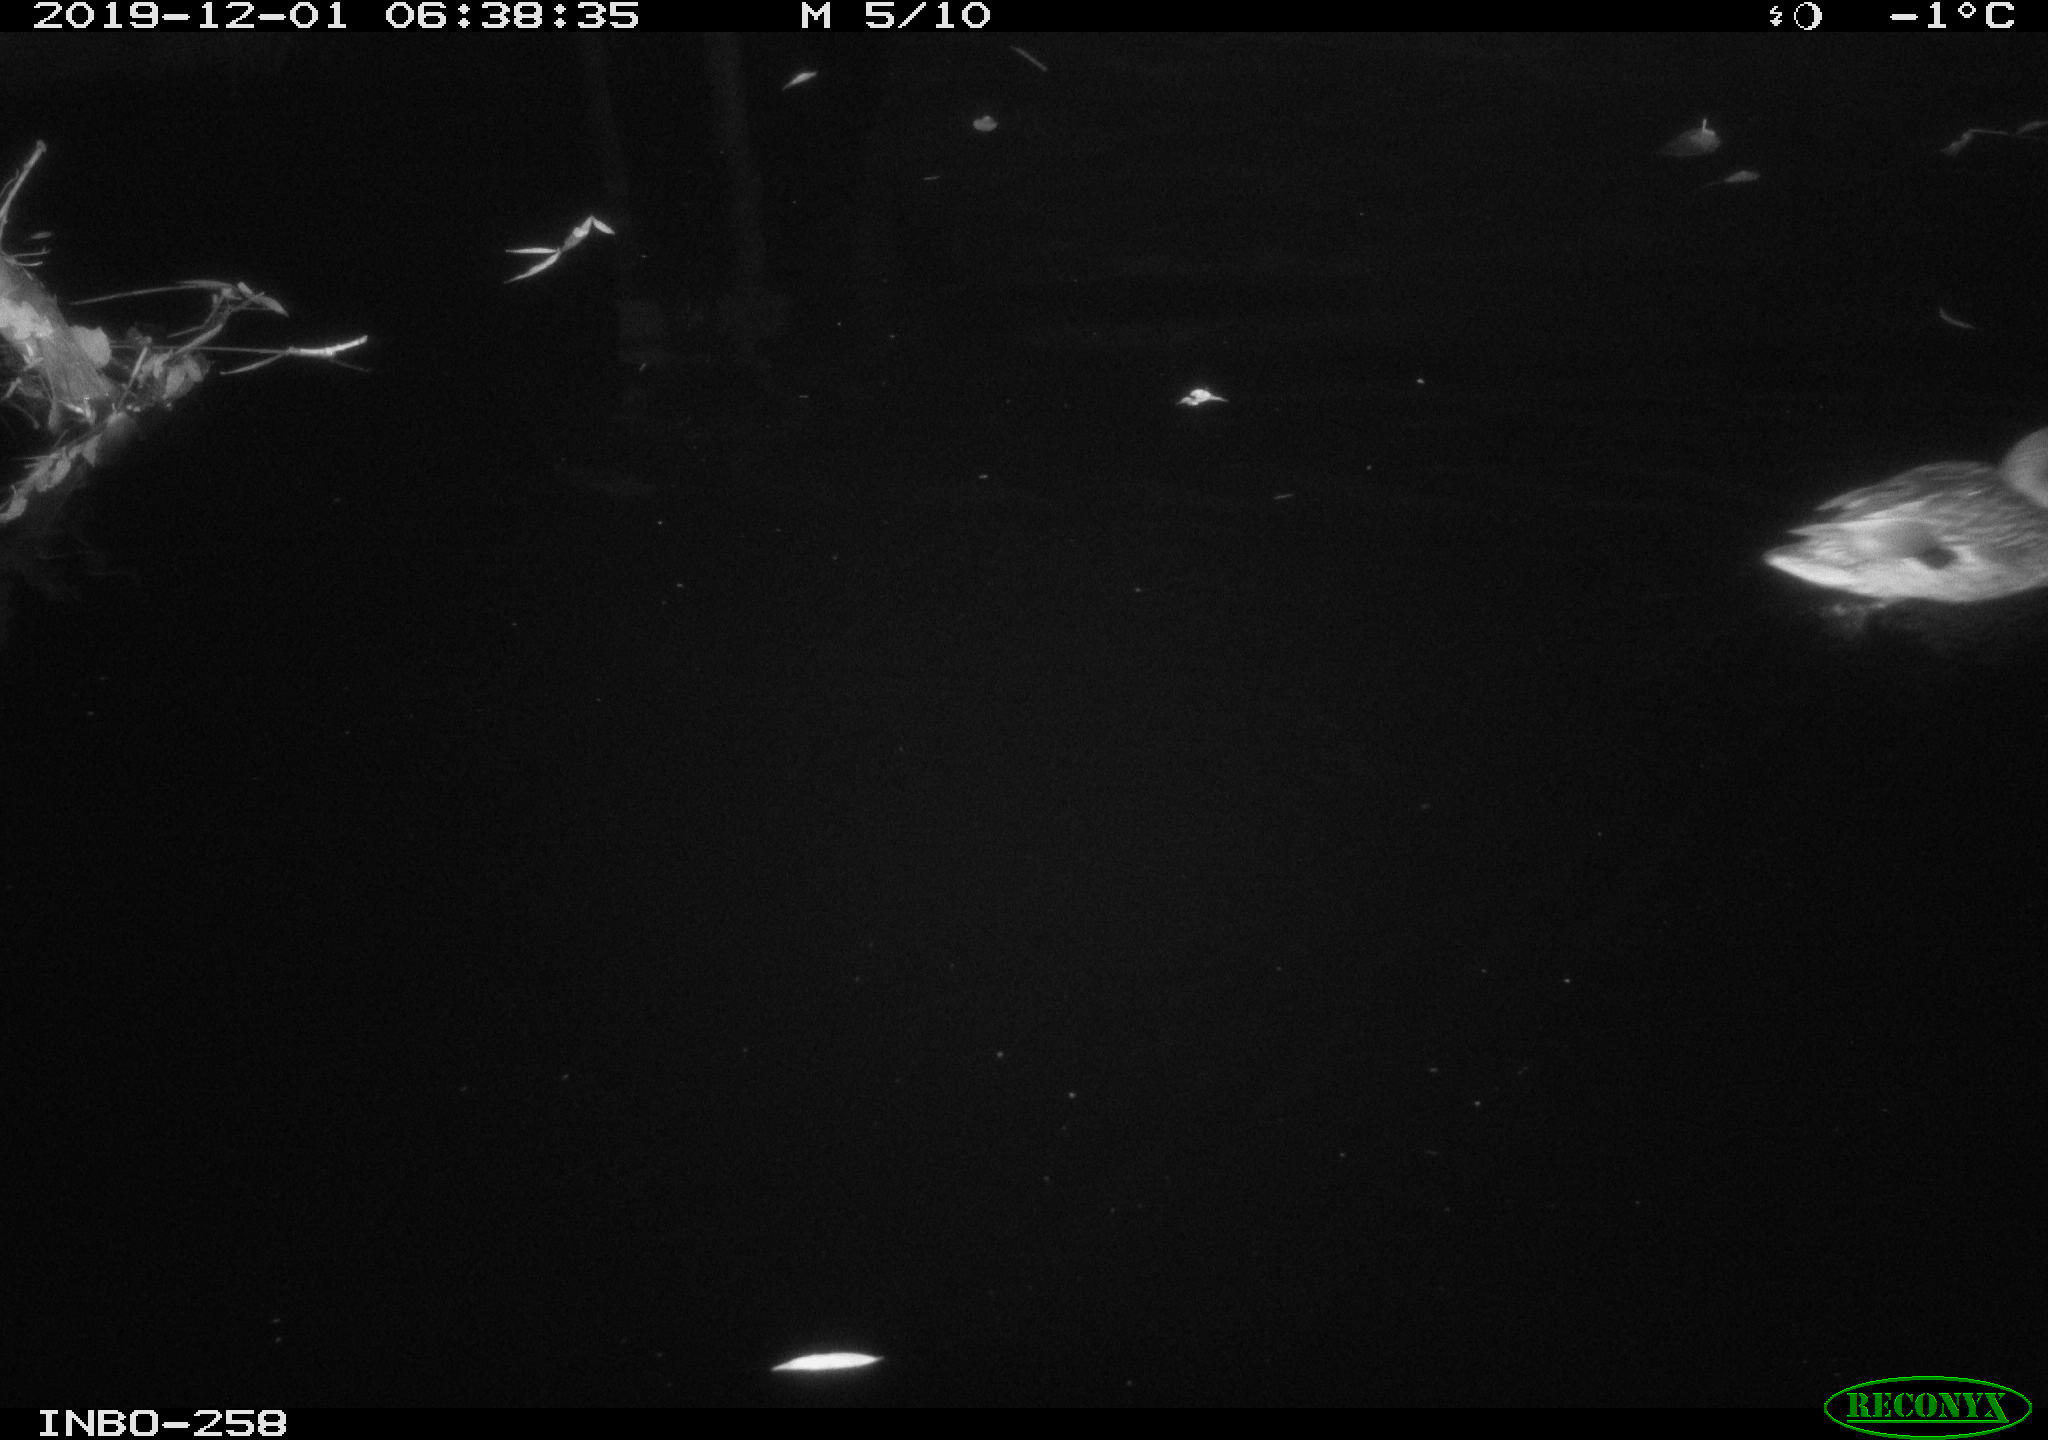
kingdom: Animalia
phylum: Chordata
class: Aves
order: Anseriformes
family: Anatidae
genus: Anas
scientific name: Anas platyrhynchos
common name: Mallard
